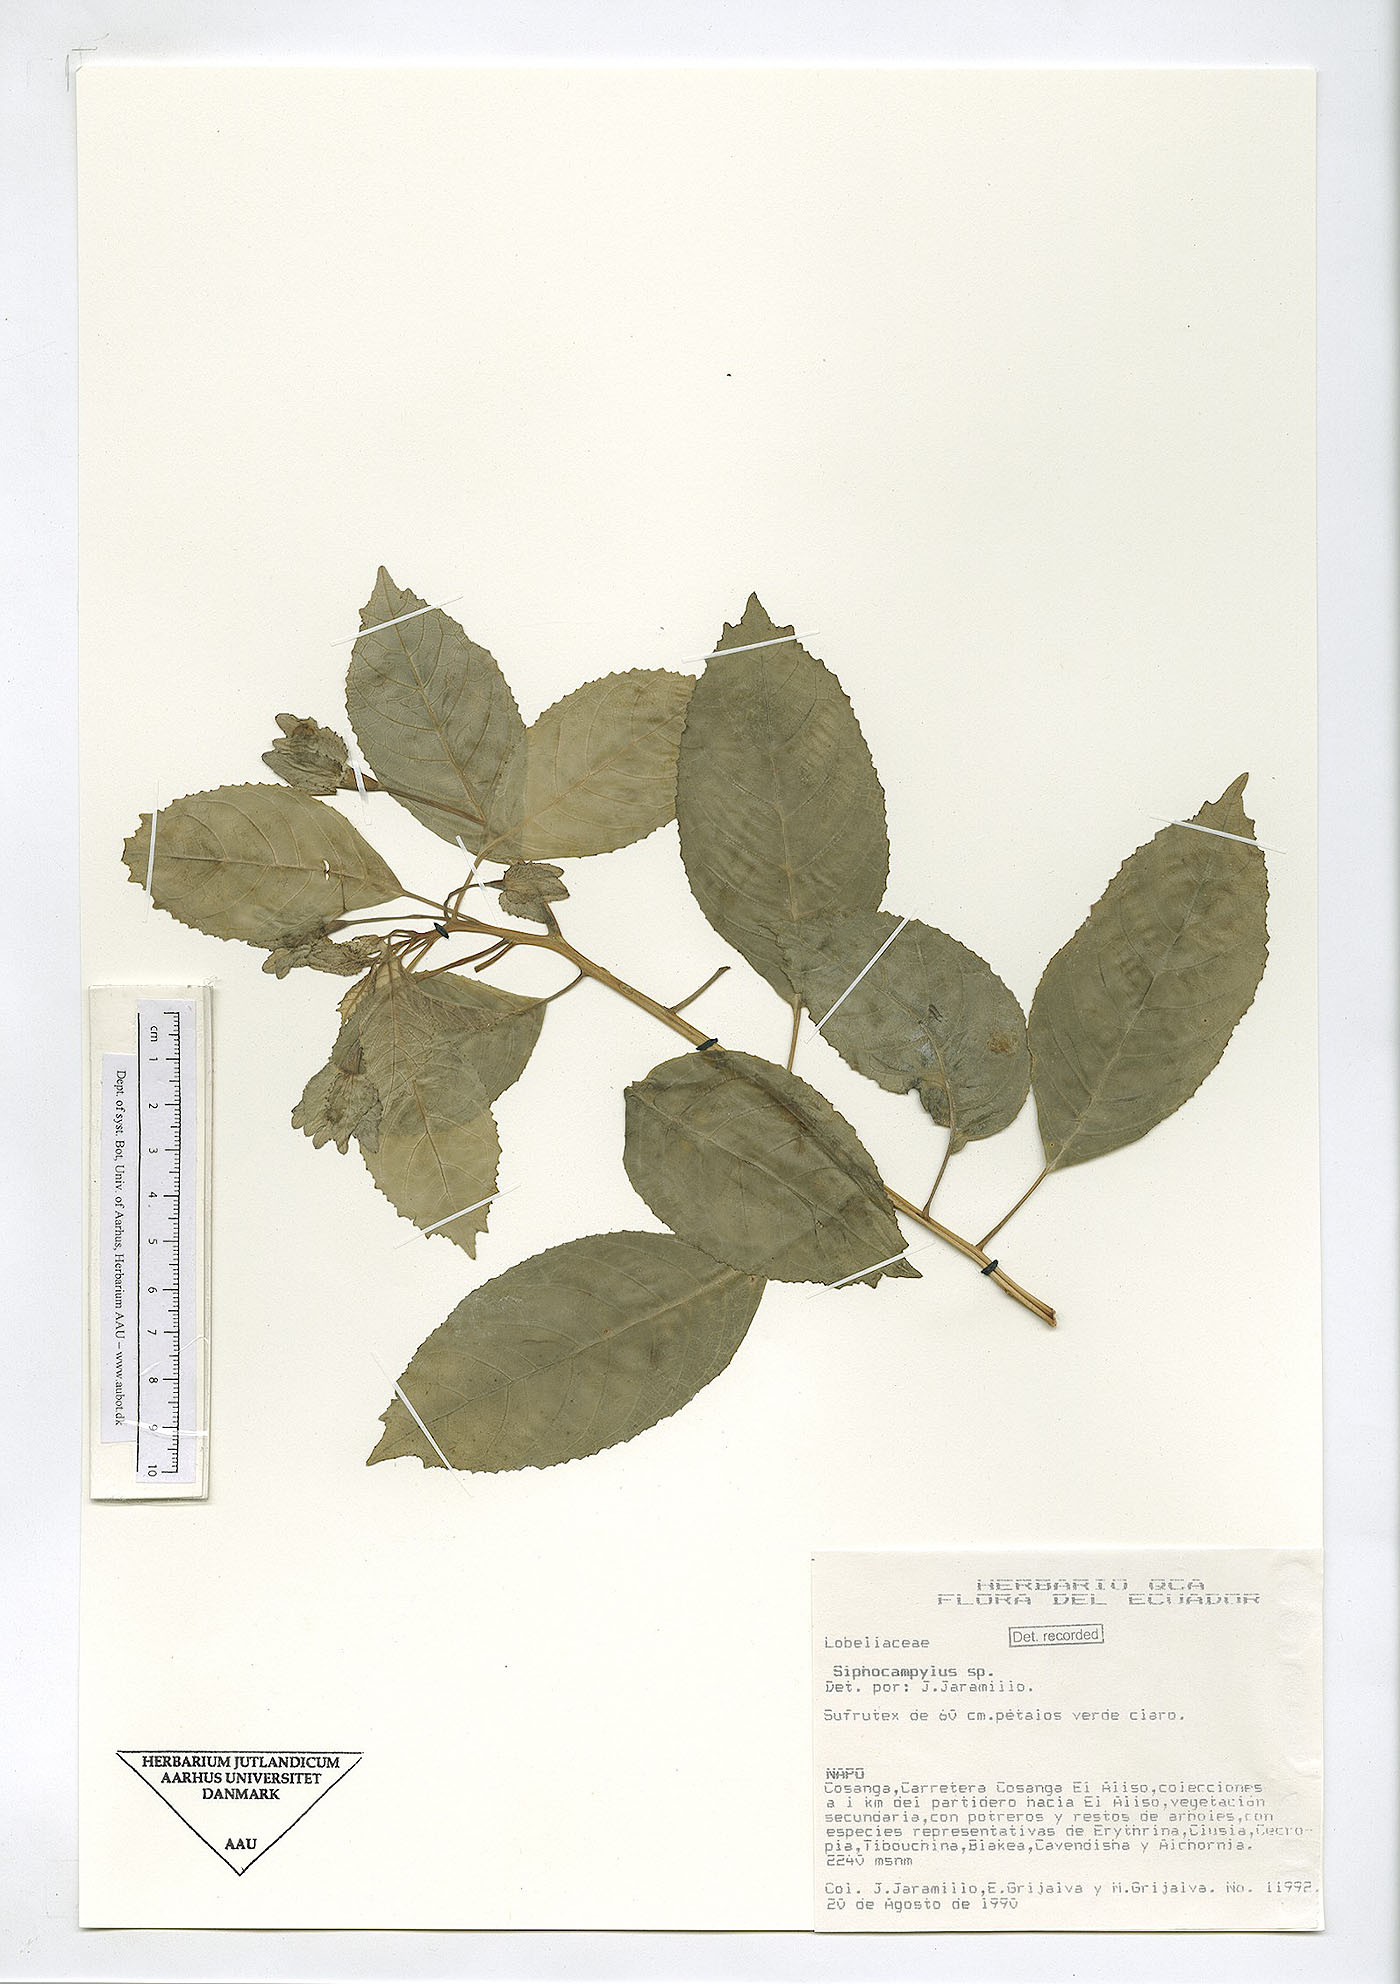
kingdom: Plantae
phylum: Tracheophyta
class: Magnoliopsida
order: Asterales
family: Campanulaceae
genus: Siphocampylus
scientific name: Siphocampylus
